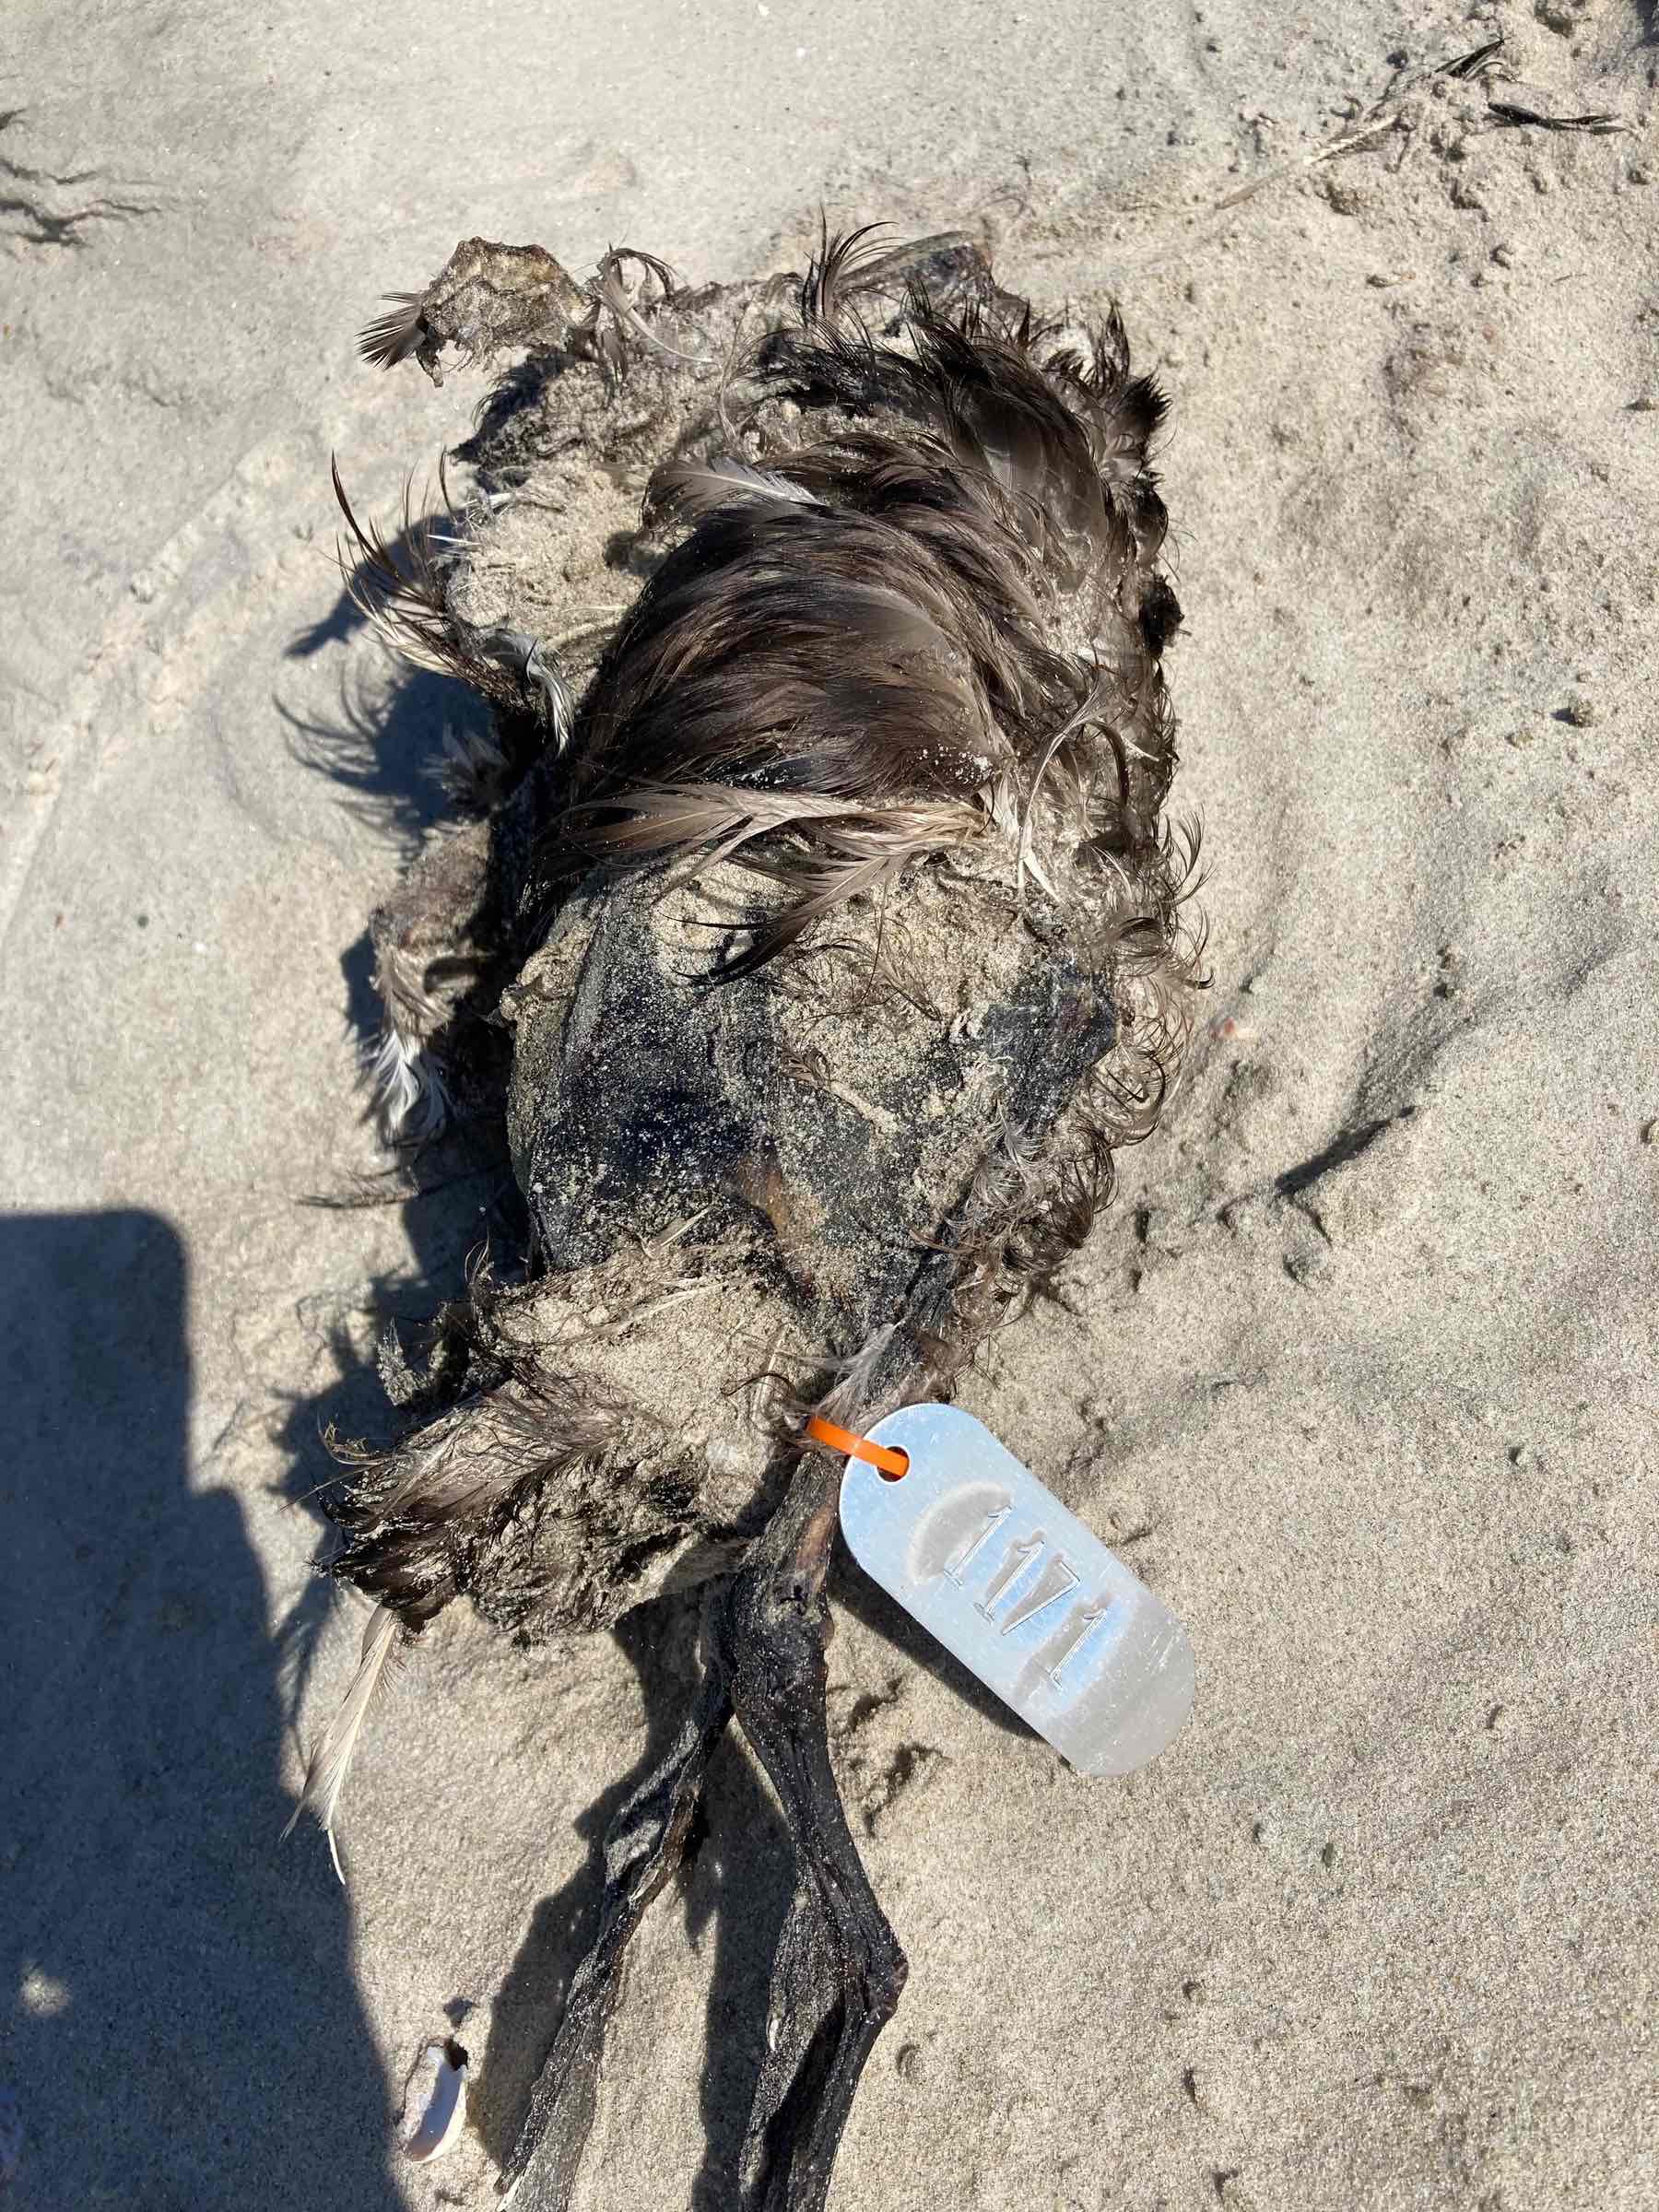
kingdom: Animalia
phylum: Chordata
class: Aves
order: Anseriformes
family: Anatidae
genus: Melanitta
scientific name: Melanitta perspicillata
